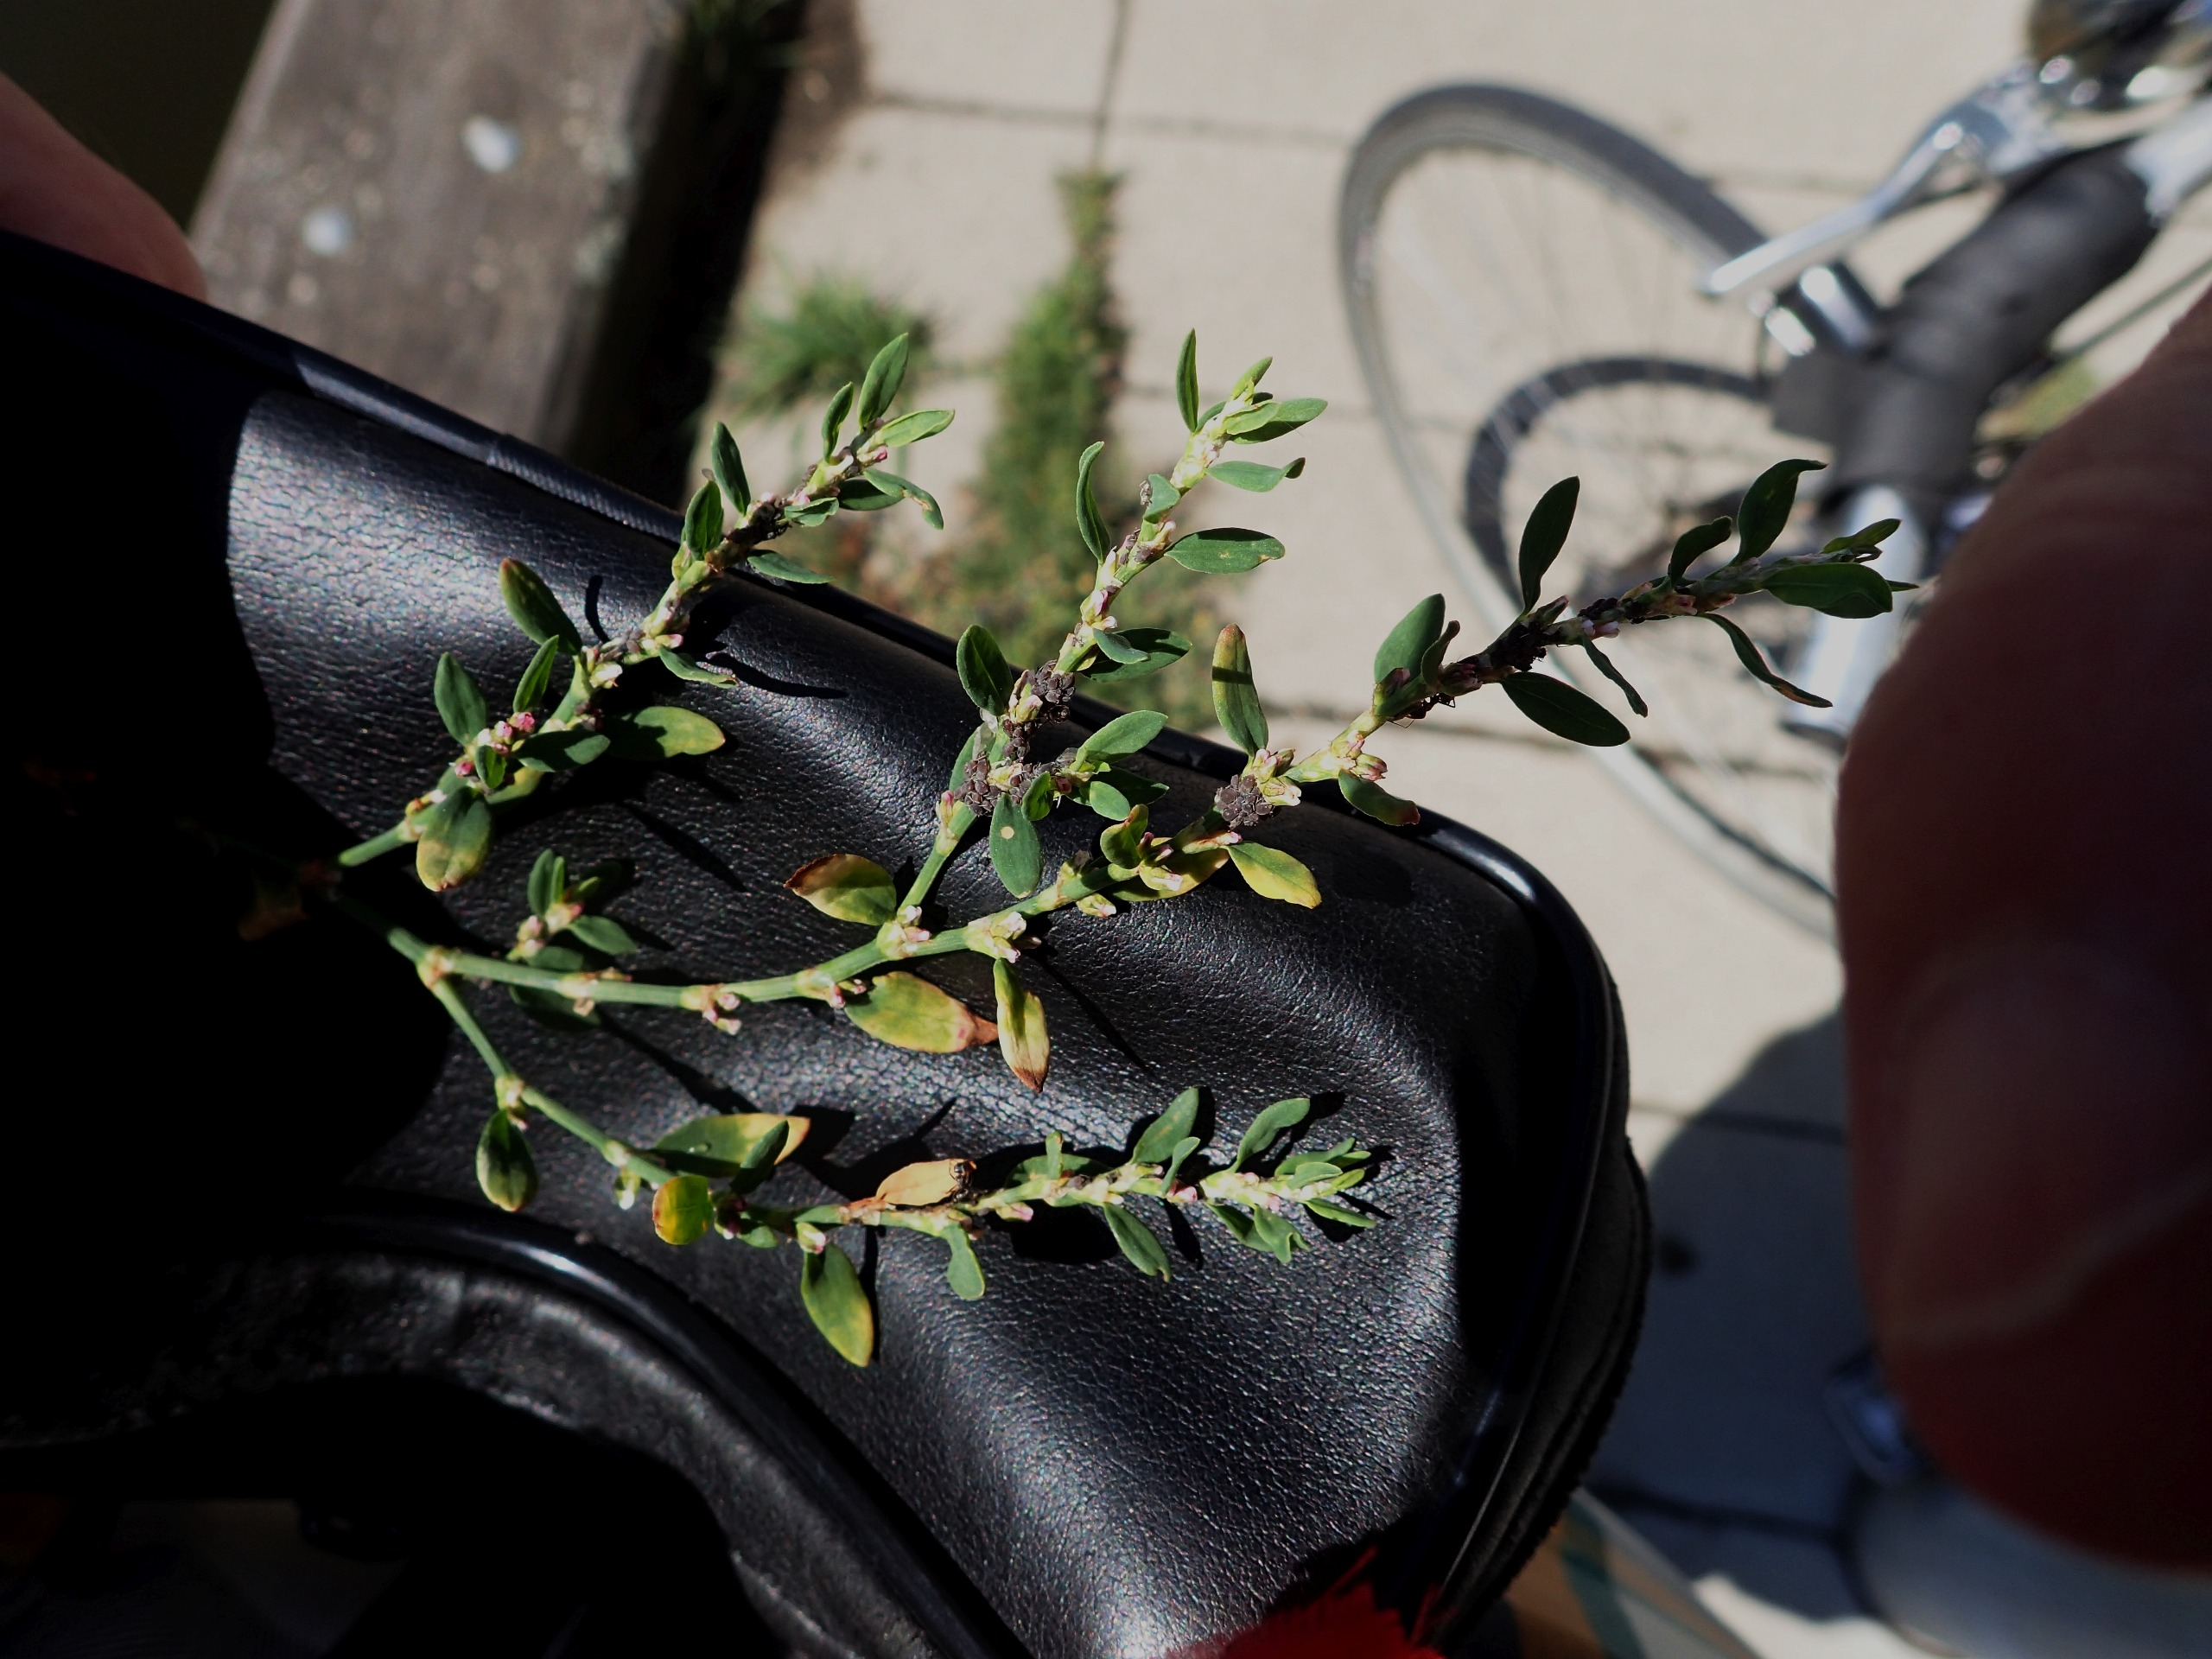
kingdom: Plantae
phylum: Tracheophyta
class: Magnoliopsida
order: Caryophyllales
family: Polygonaceae
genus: Polygonum
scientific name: Polygonum arenastrum
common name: Liggende vej-pileurt
